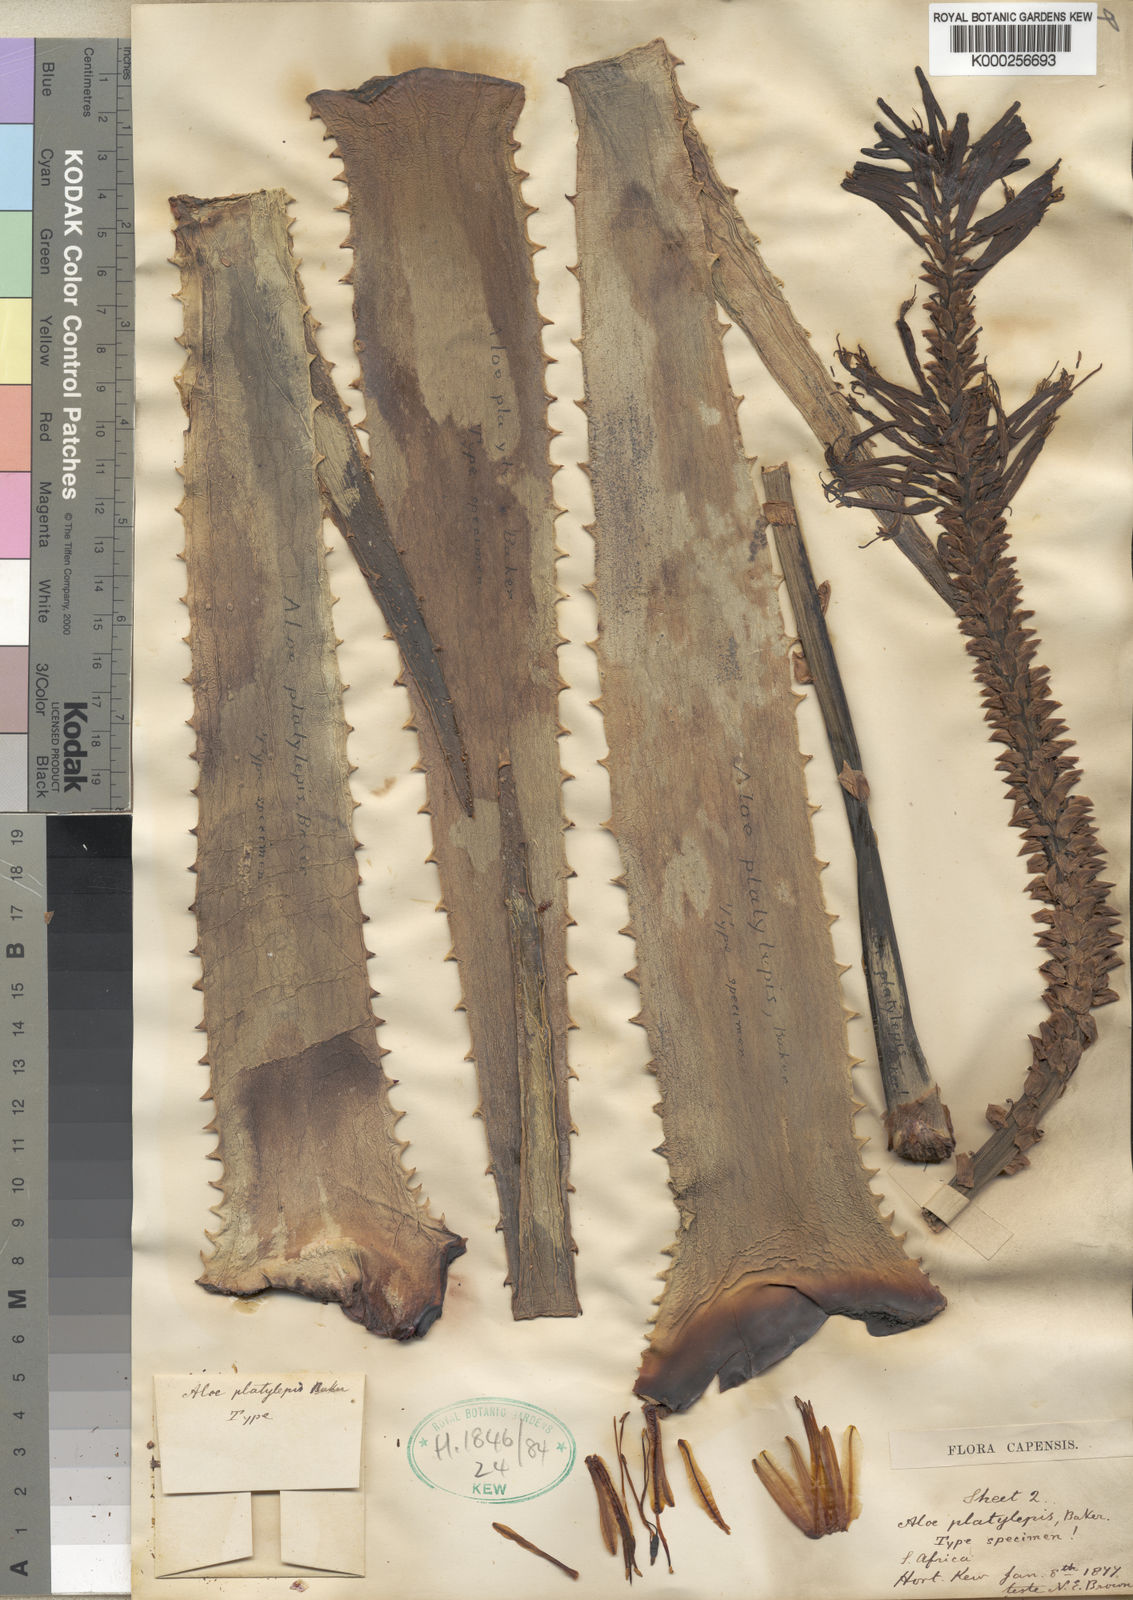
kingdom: Plantae
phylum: Tracheophyta
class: Liliopsida
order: Asparagales
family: Asphodelaceae
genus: Aloe
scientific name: Aloe hexapetala
